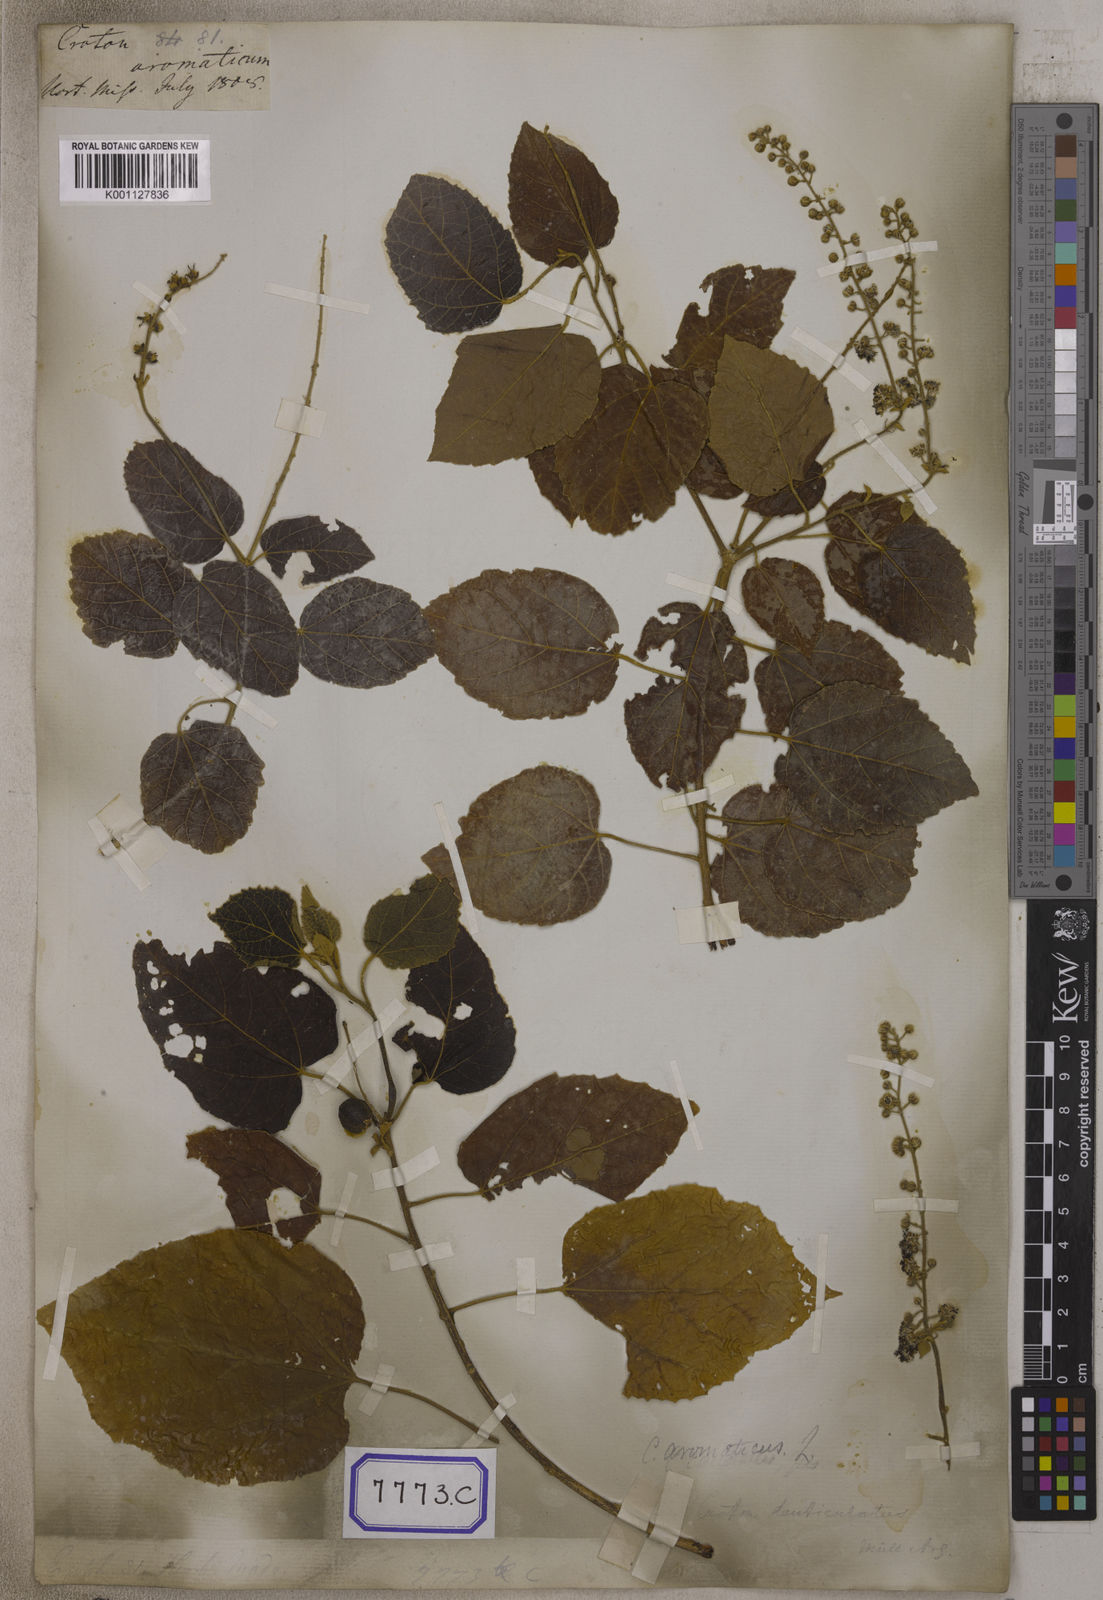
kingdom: Plantae
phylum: Tracheophyta
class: Magnoliopsida
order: Malpighiales
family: Euphorbiaceae
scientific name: Euphorbiaceae
